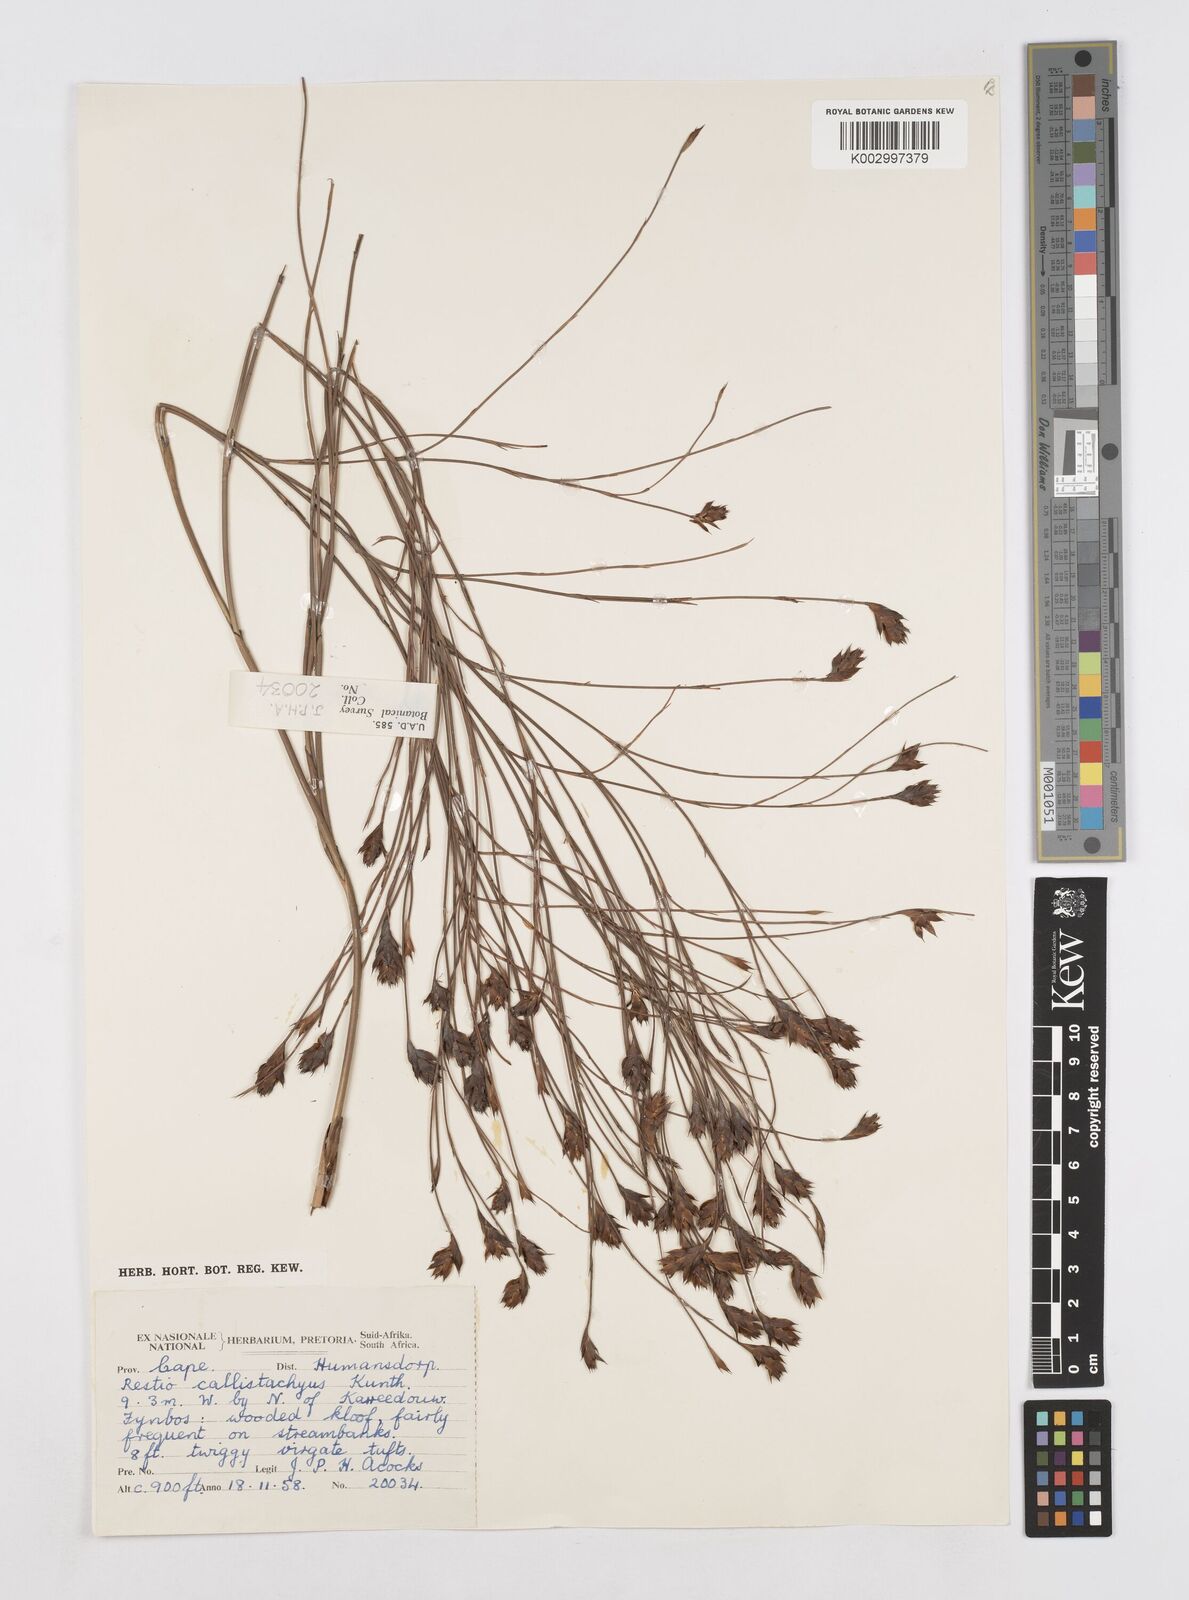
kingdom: Plantae
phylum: Tracheophyta
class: Liliopsida
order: Poales
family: Restionaceae
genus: Platycaulos
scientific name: Platycaulos callistachyus
